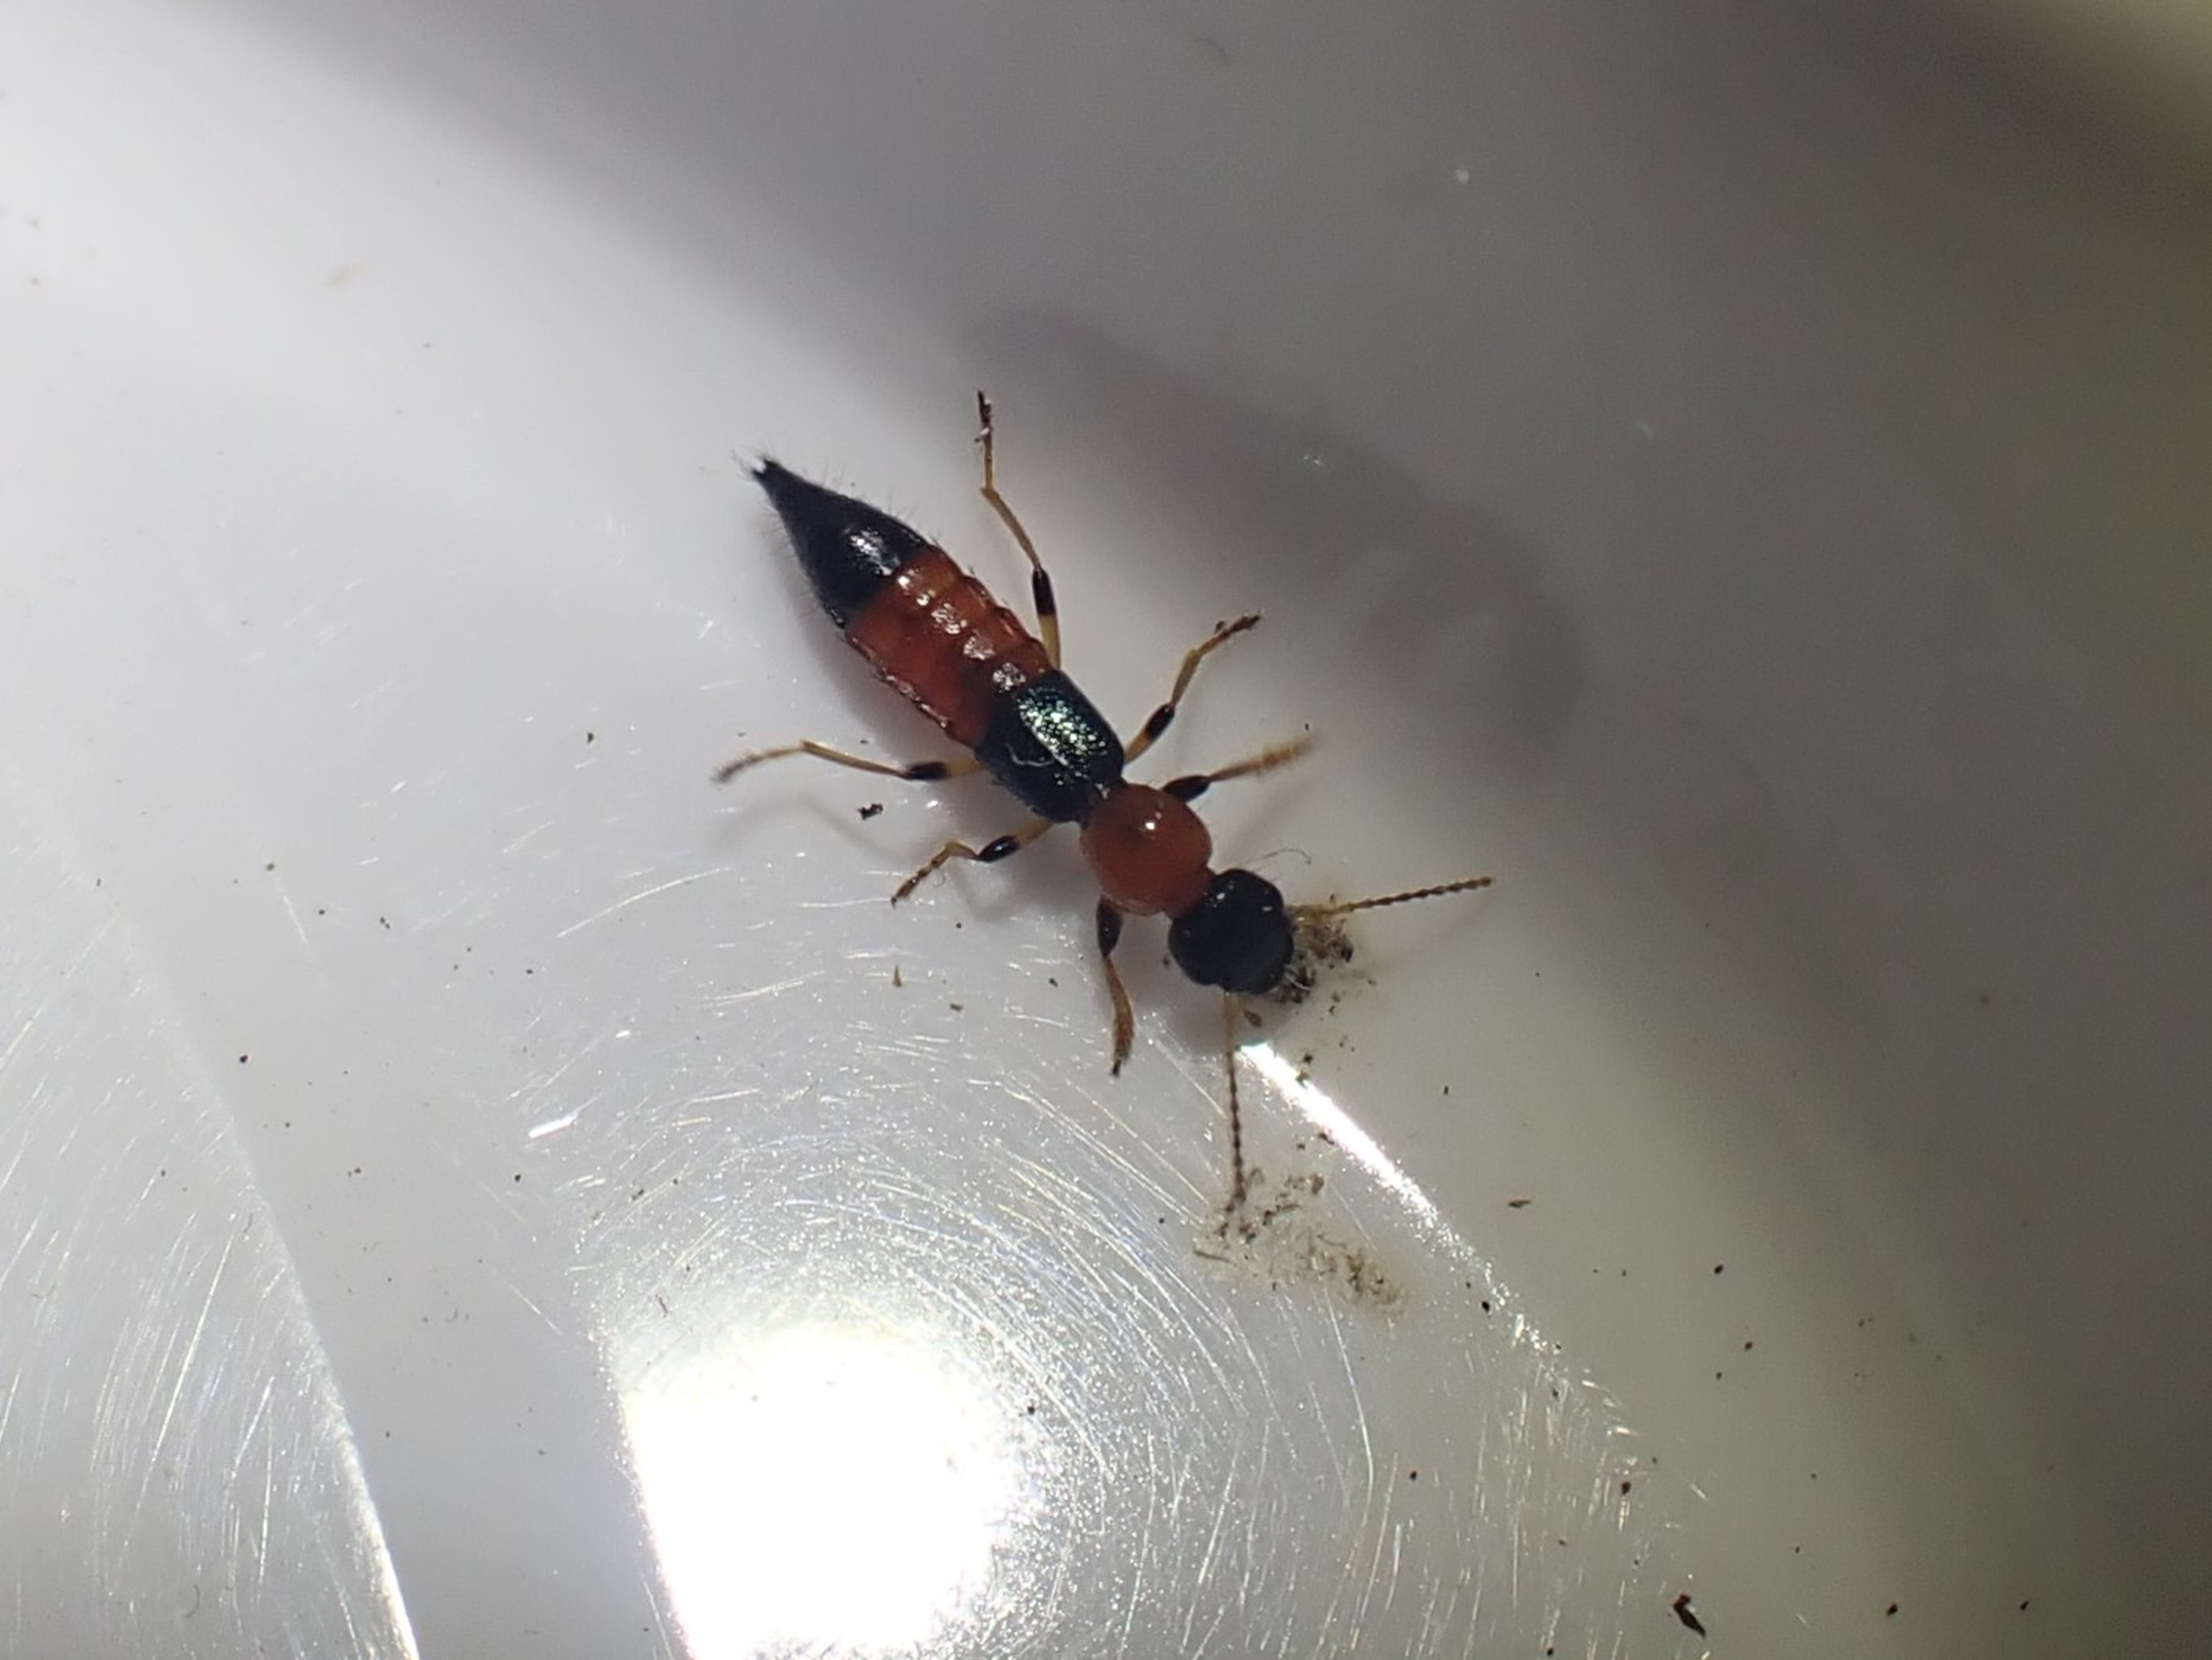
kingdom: Animalia
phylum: Arthropoda
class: Insecta
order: Coleoptera
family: Staphylinidae
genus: Paederus
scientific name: Paederus littoralis
